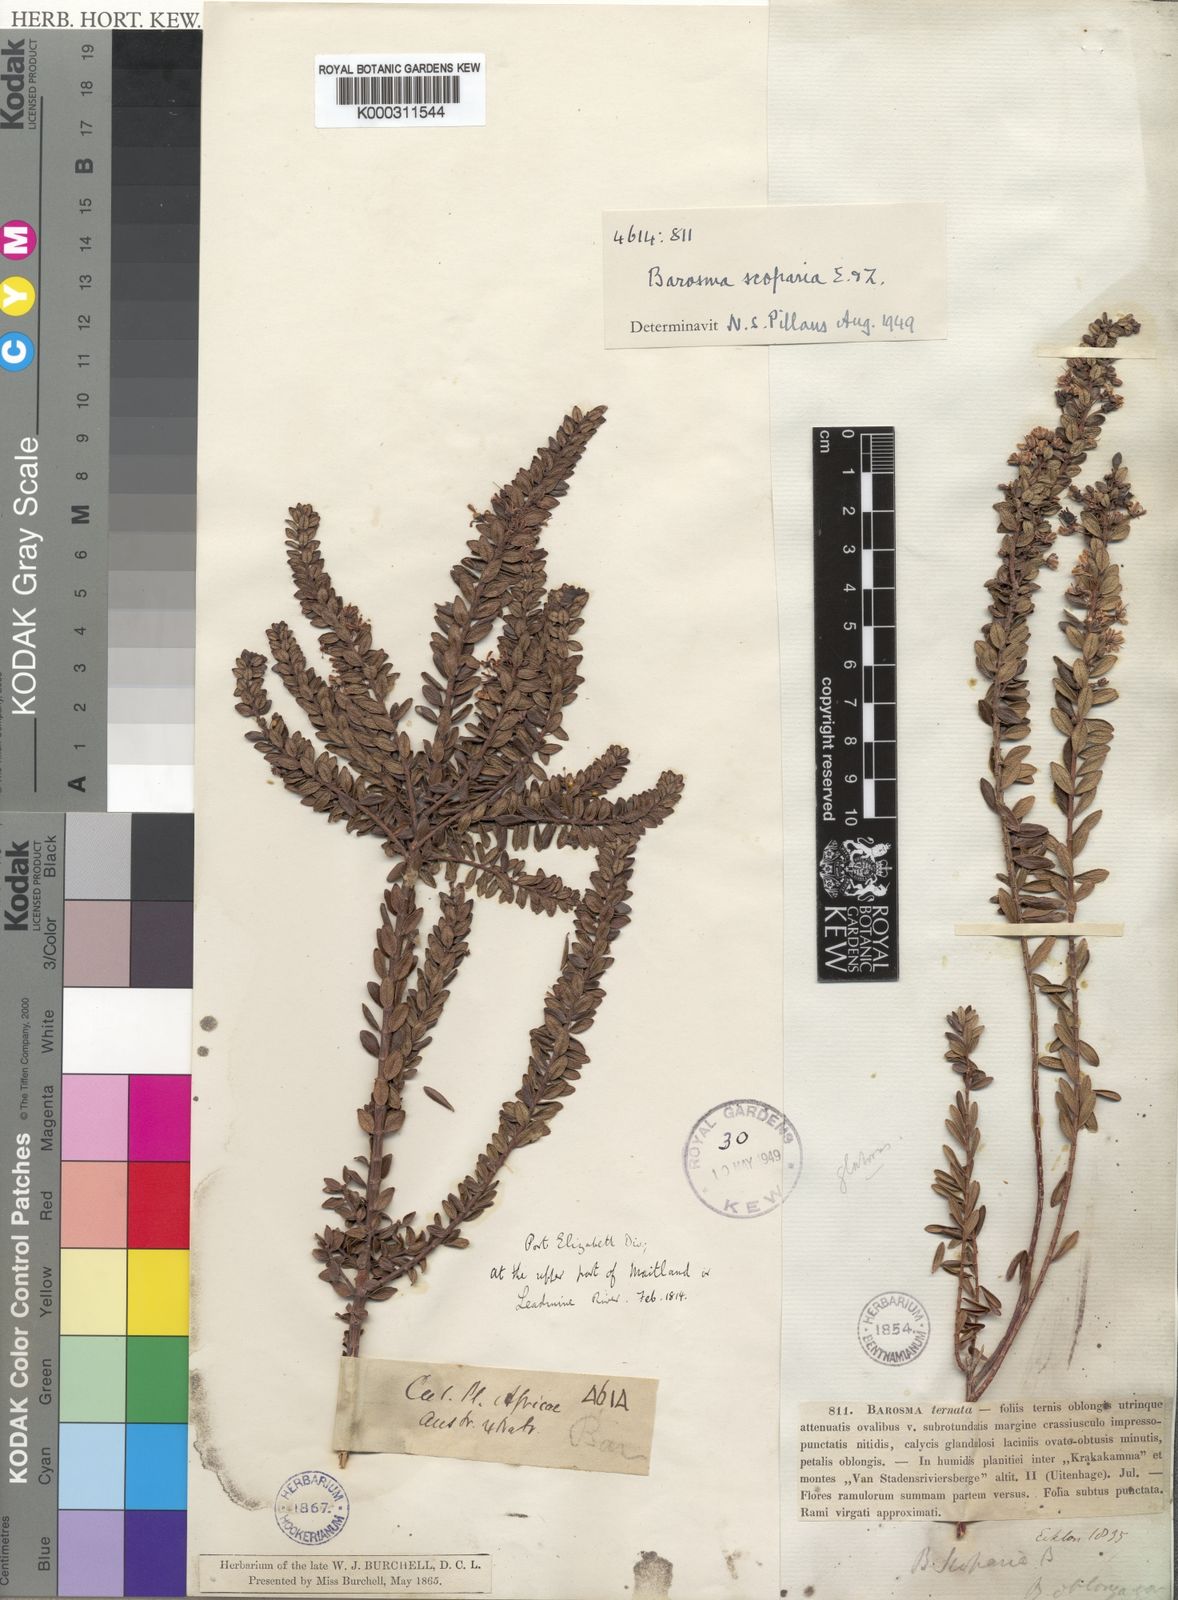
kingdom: Plantae
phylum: Tracheophyta
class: Magnoliopsida
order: Sapindales
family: Rutaceae
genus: Agathosma
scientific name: Agathosma ovata
